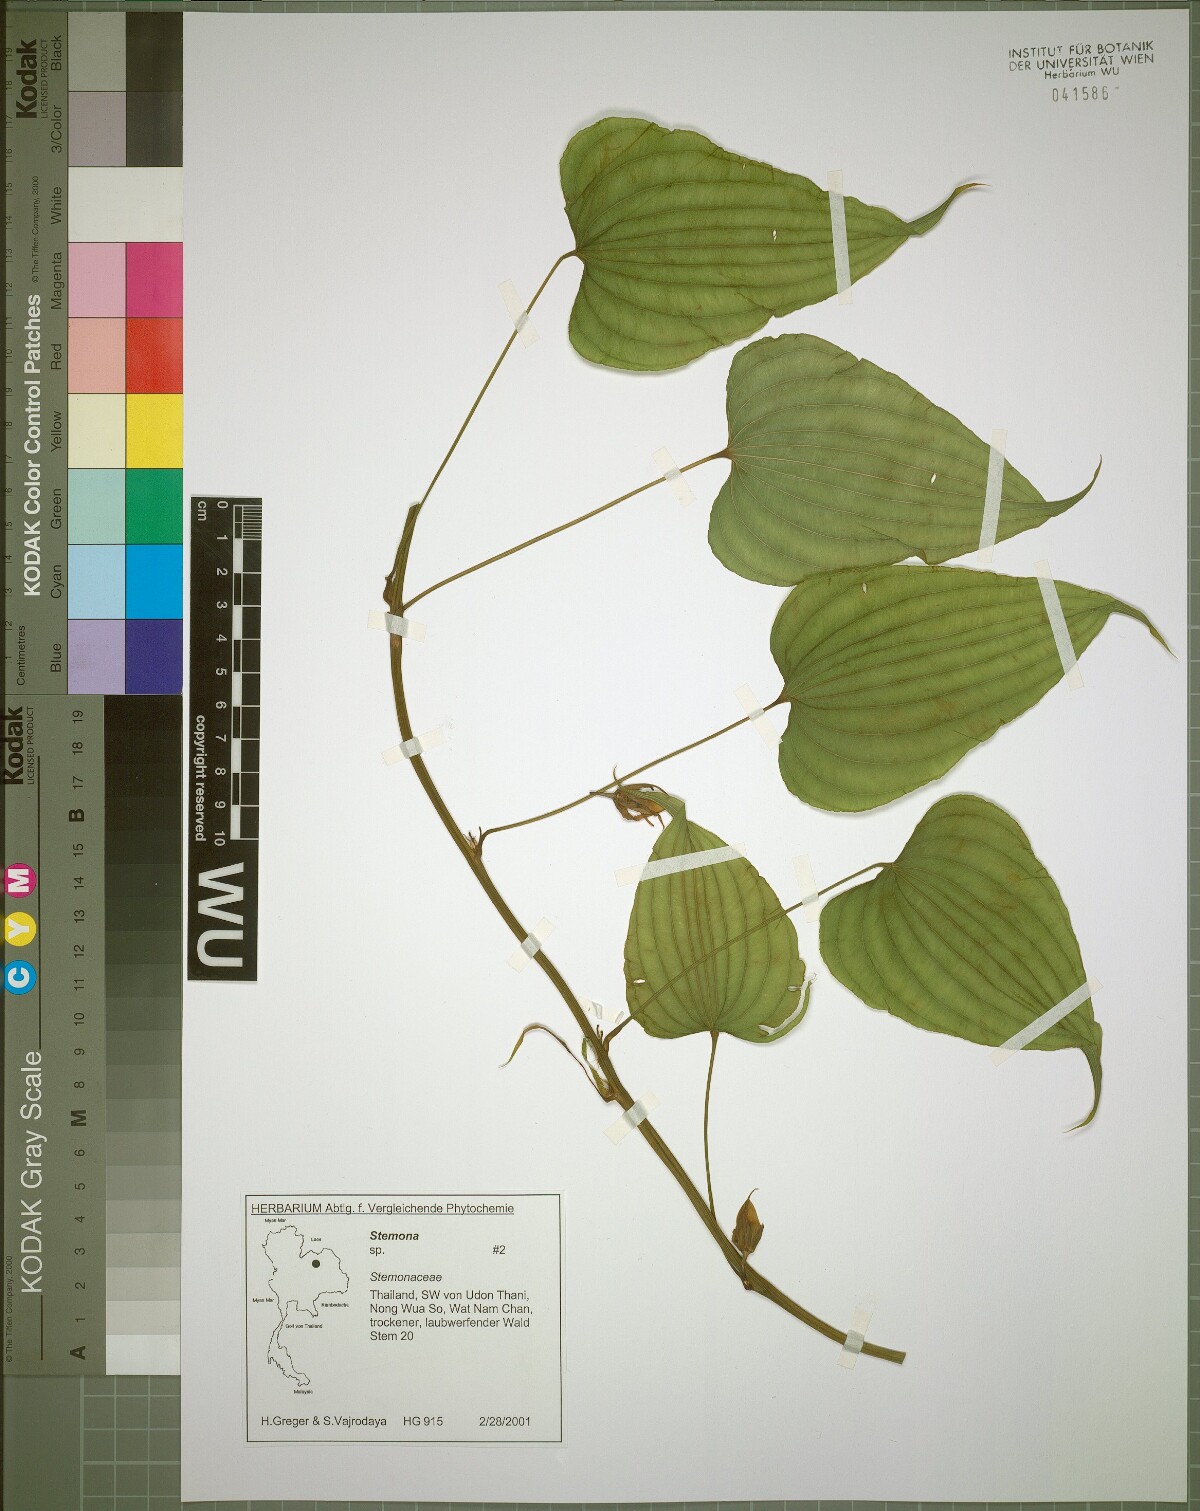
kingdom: Plantae
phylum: Tracheophyta
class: Liliopsida
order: Pandanales
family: Stemonaceae
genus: Stemona
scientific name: Stemona aphylla
